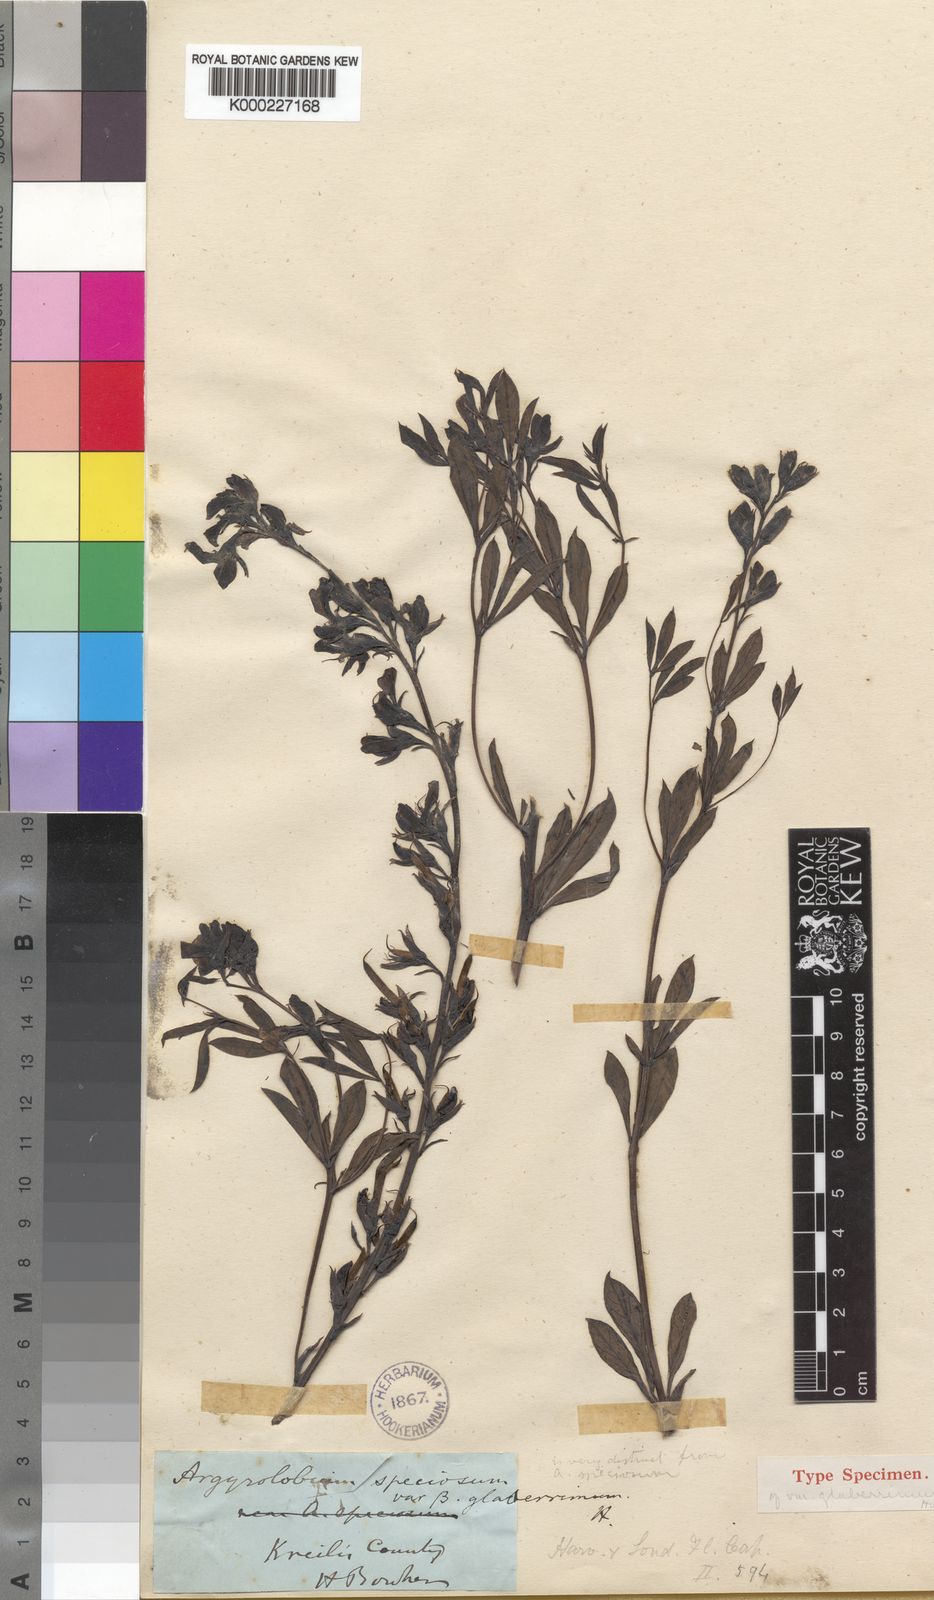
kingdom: Plantae
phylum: Tracheophyta
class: Magnoliopsida
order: Fabales
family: Fabaceae
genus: Argyrolobium
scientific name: Argyrolobium speciosum
